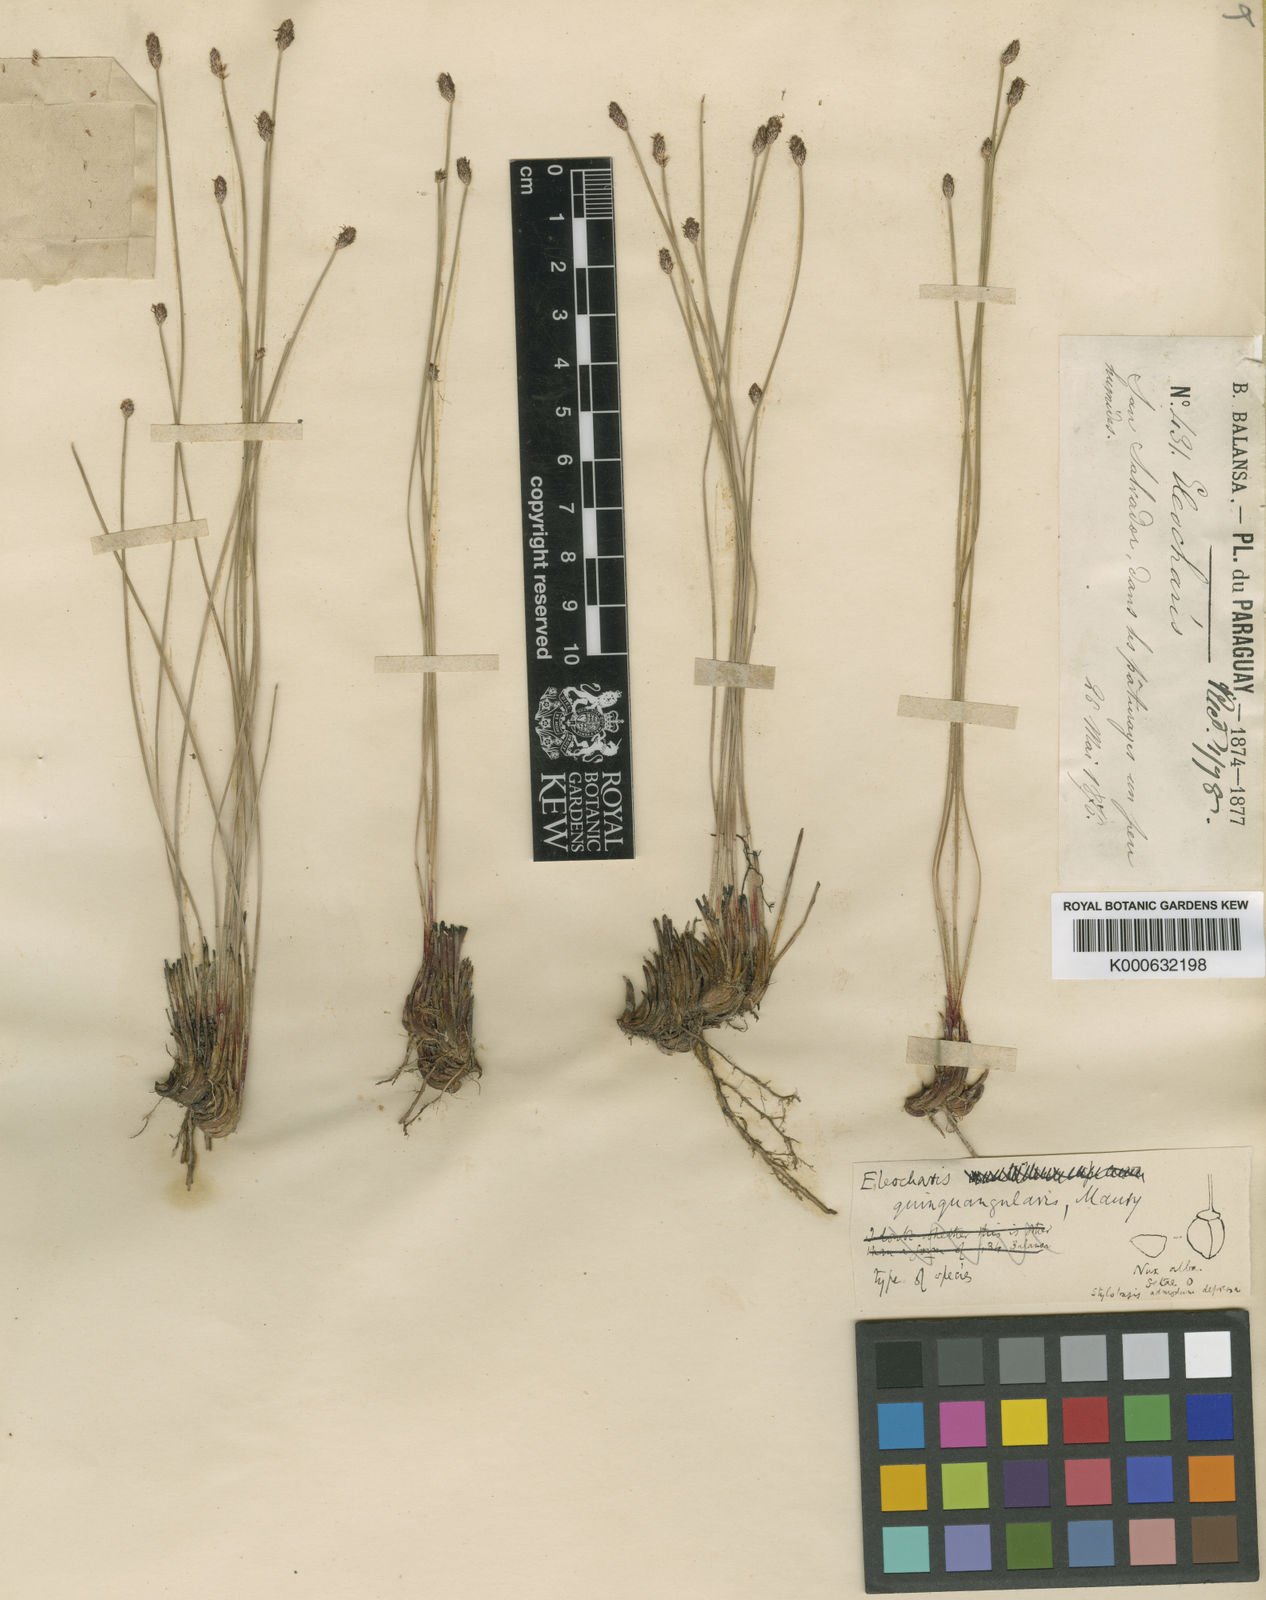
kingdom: Plantae
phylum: Tracheophyta
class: Liliopsida
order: Poales
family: Cyperaceae
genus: Eleocharis
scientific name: Eleocharis
